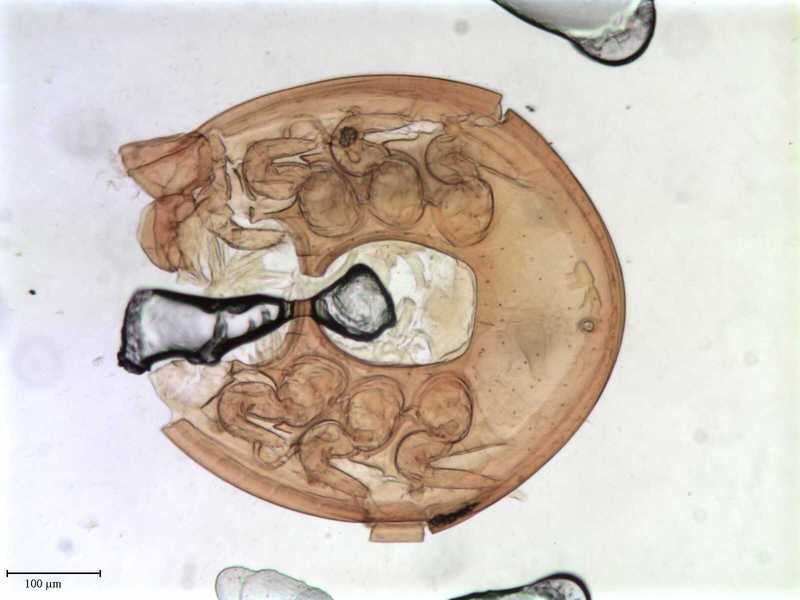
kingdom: Animalia
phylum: Arthropoda
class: Arachnida
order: Mesostigmata
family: Oplitidae
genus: Oplitis
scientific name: Oplitis wasmanni
